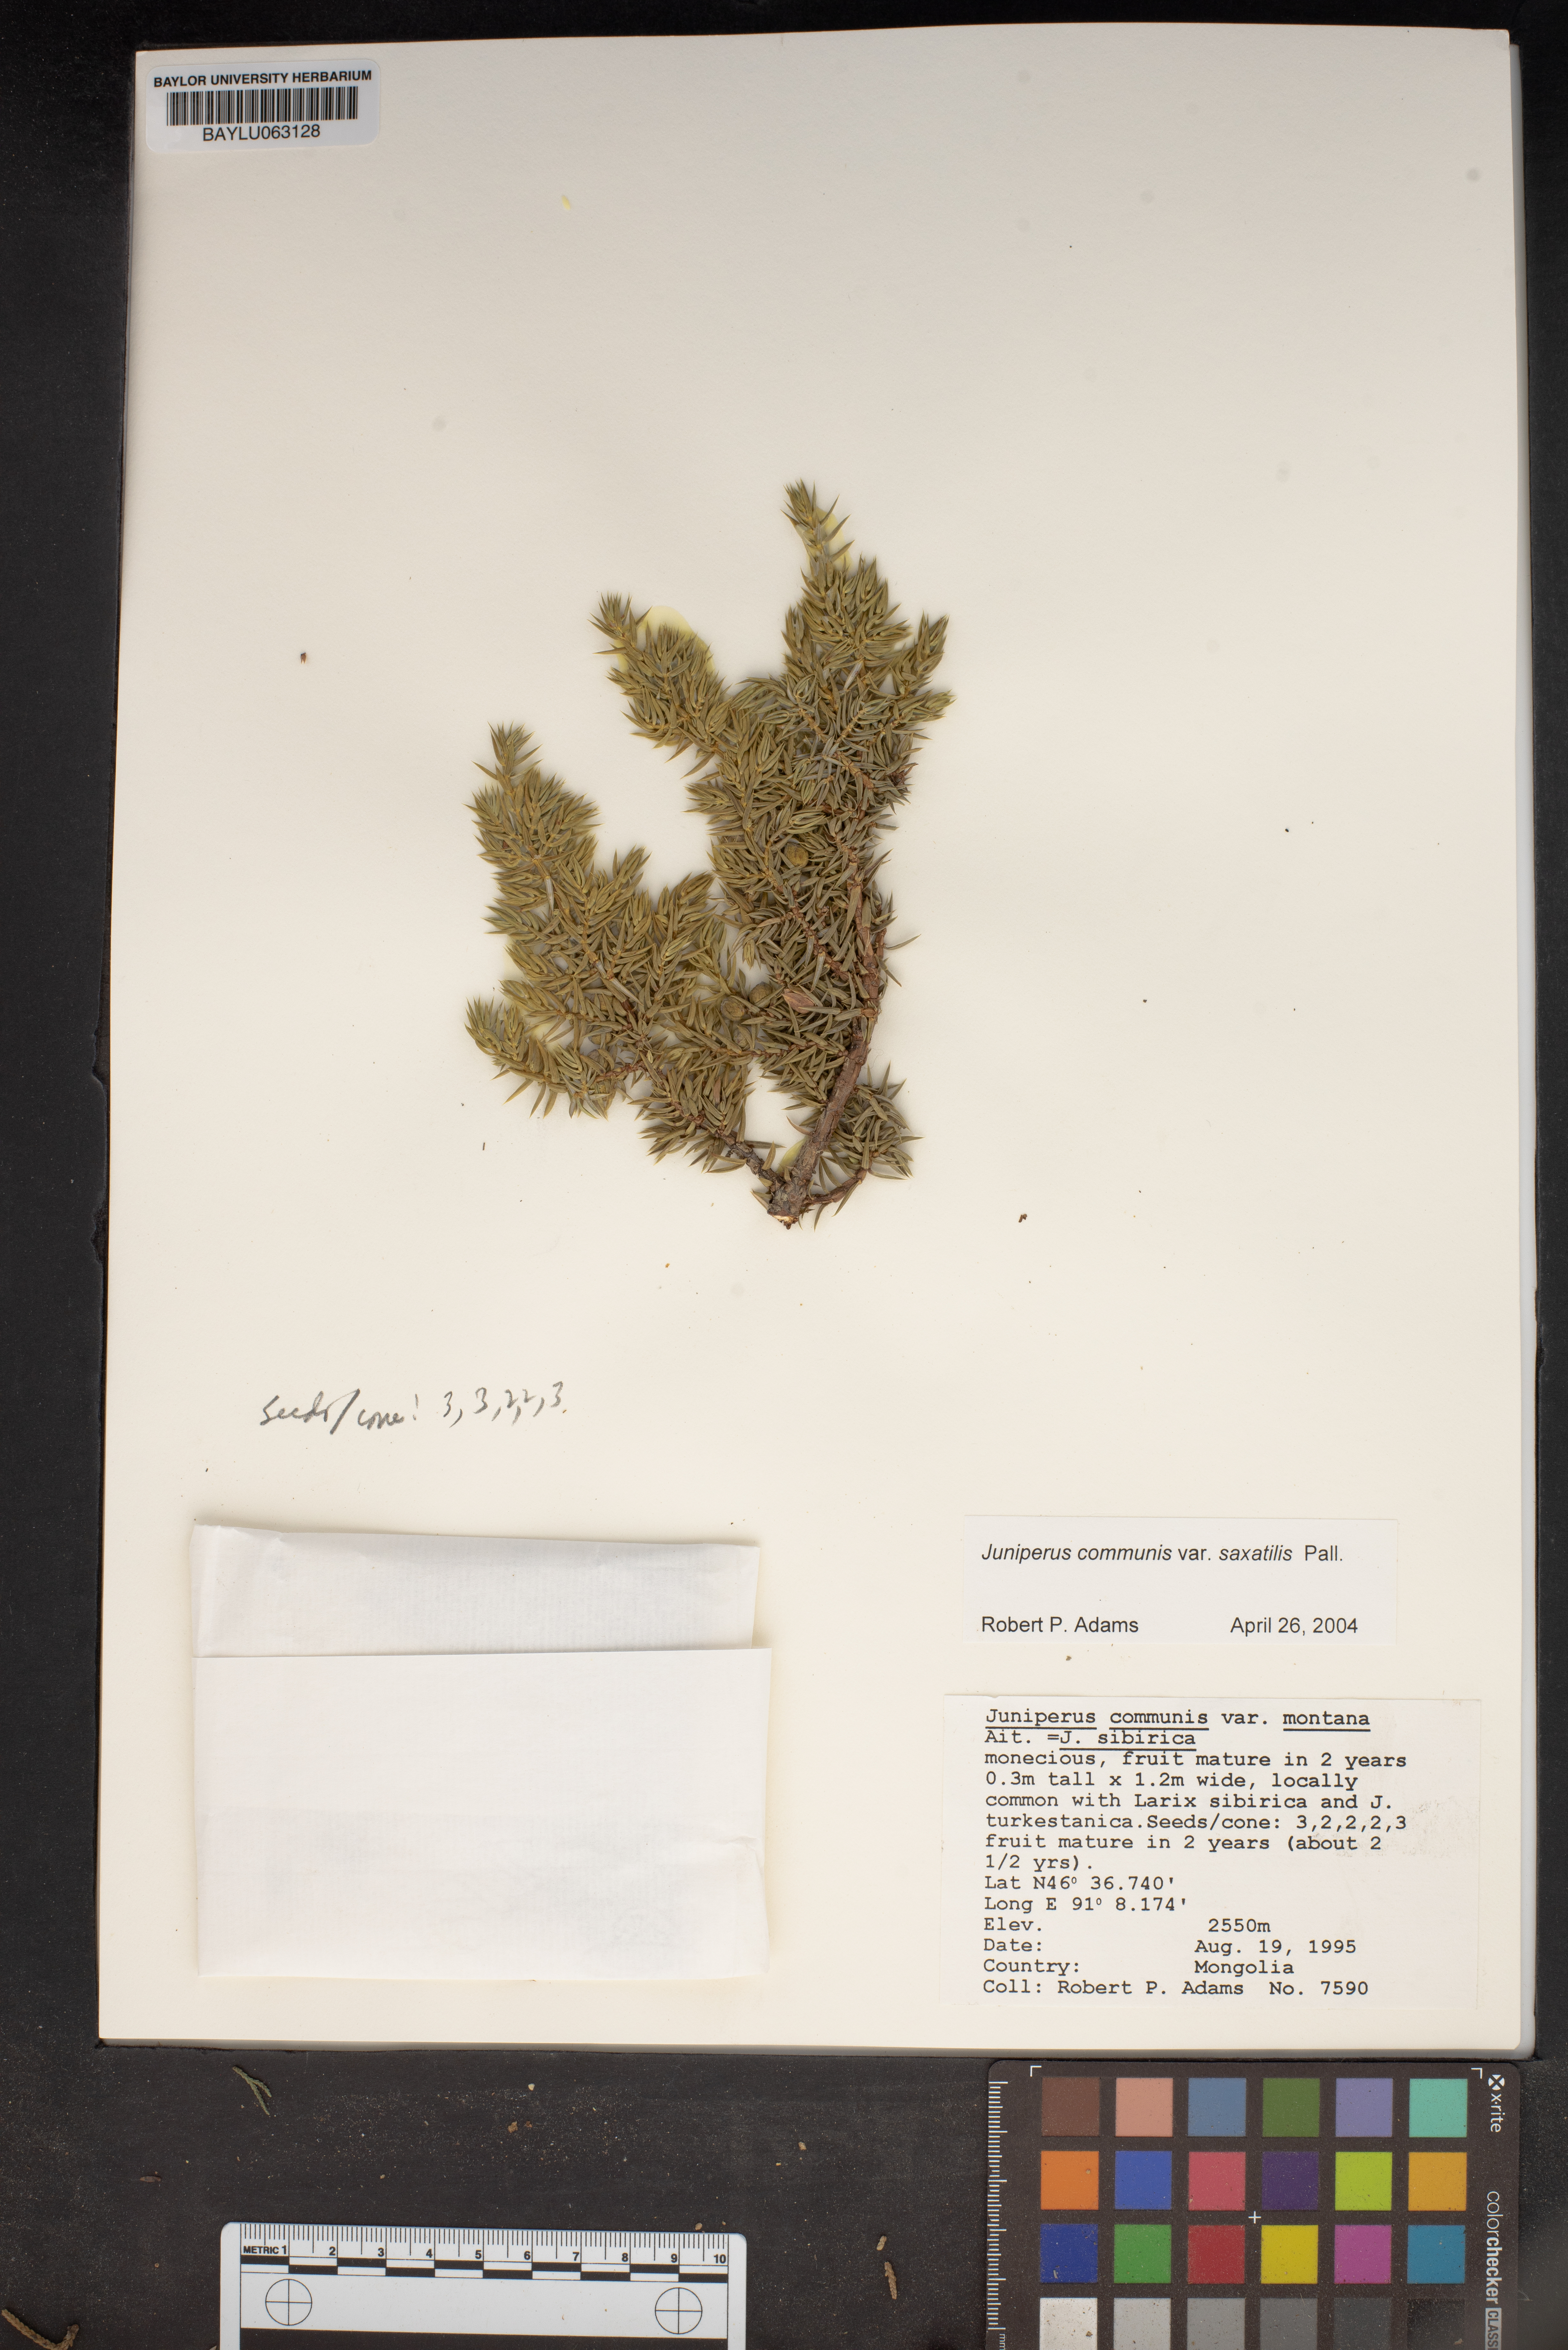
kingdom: Plantae
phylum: Tracheophyta
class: Pinopsida
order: Pinales
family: Cupressaceae
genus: Juniperus
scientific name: Juniperus communis
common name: Common juniper
